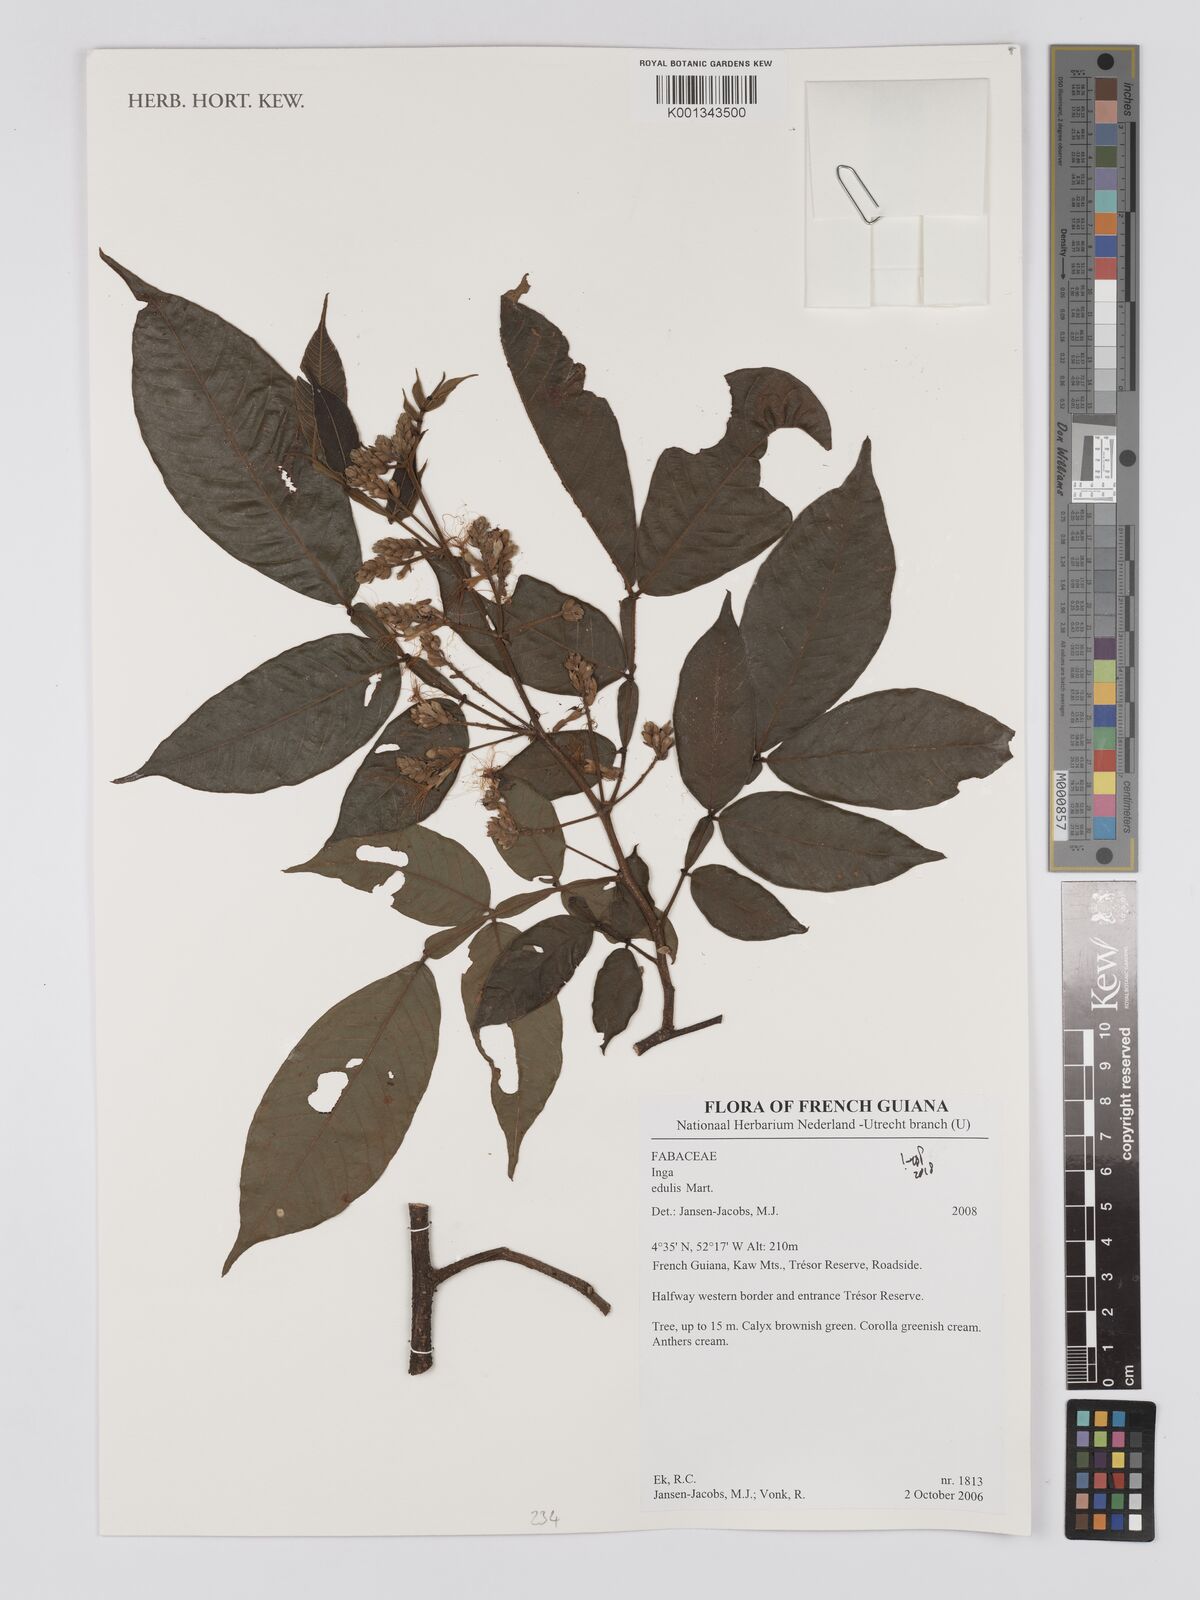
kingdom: Plantae
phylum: Tracheophyta
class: Magnoliopsida
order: Fabales
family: Fabaceae
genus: Inga
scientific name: Inga edulis
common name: Ice cream bean
